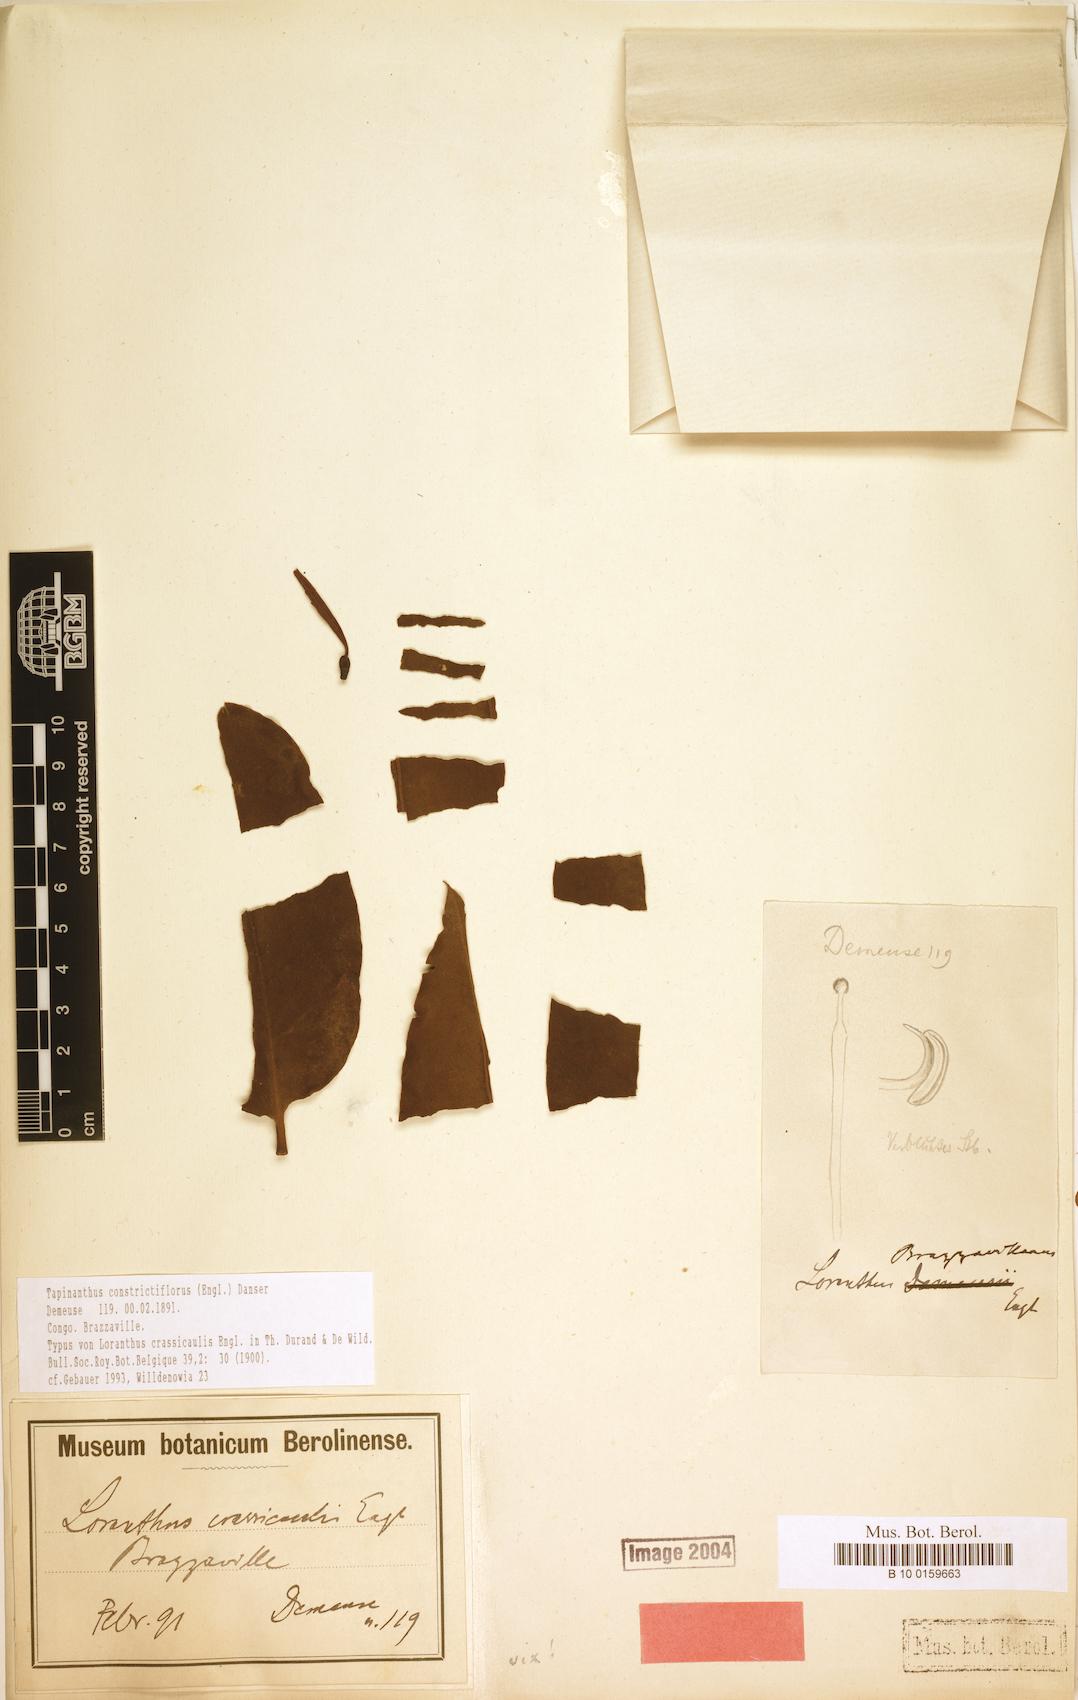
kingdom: Plantae
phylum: Tracheophyta
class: Magnoliopsida
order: Santalales
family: Loranthaceae
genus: Tapinanthus
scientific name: Tapinanthus constrictiflorus
